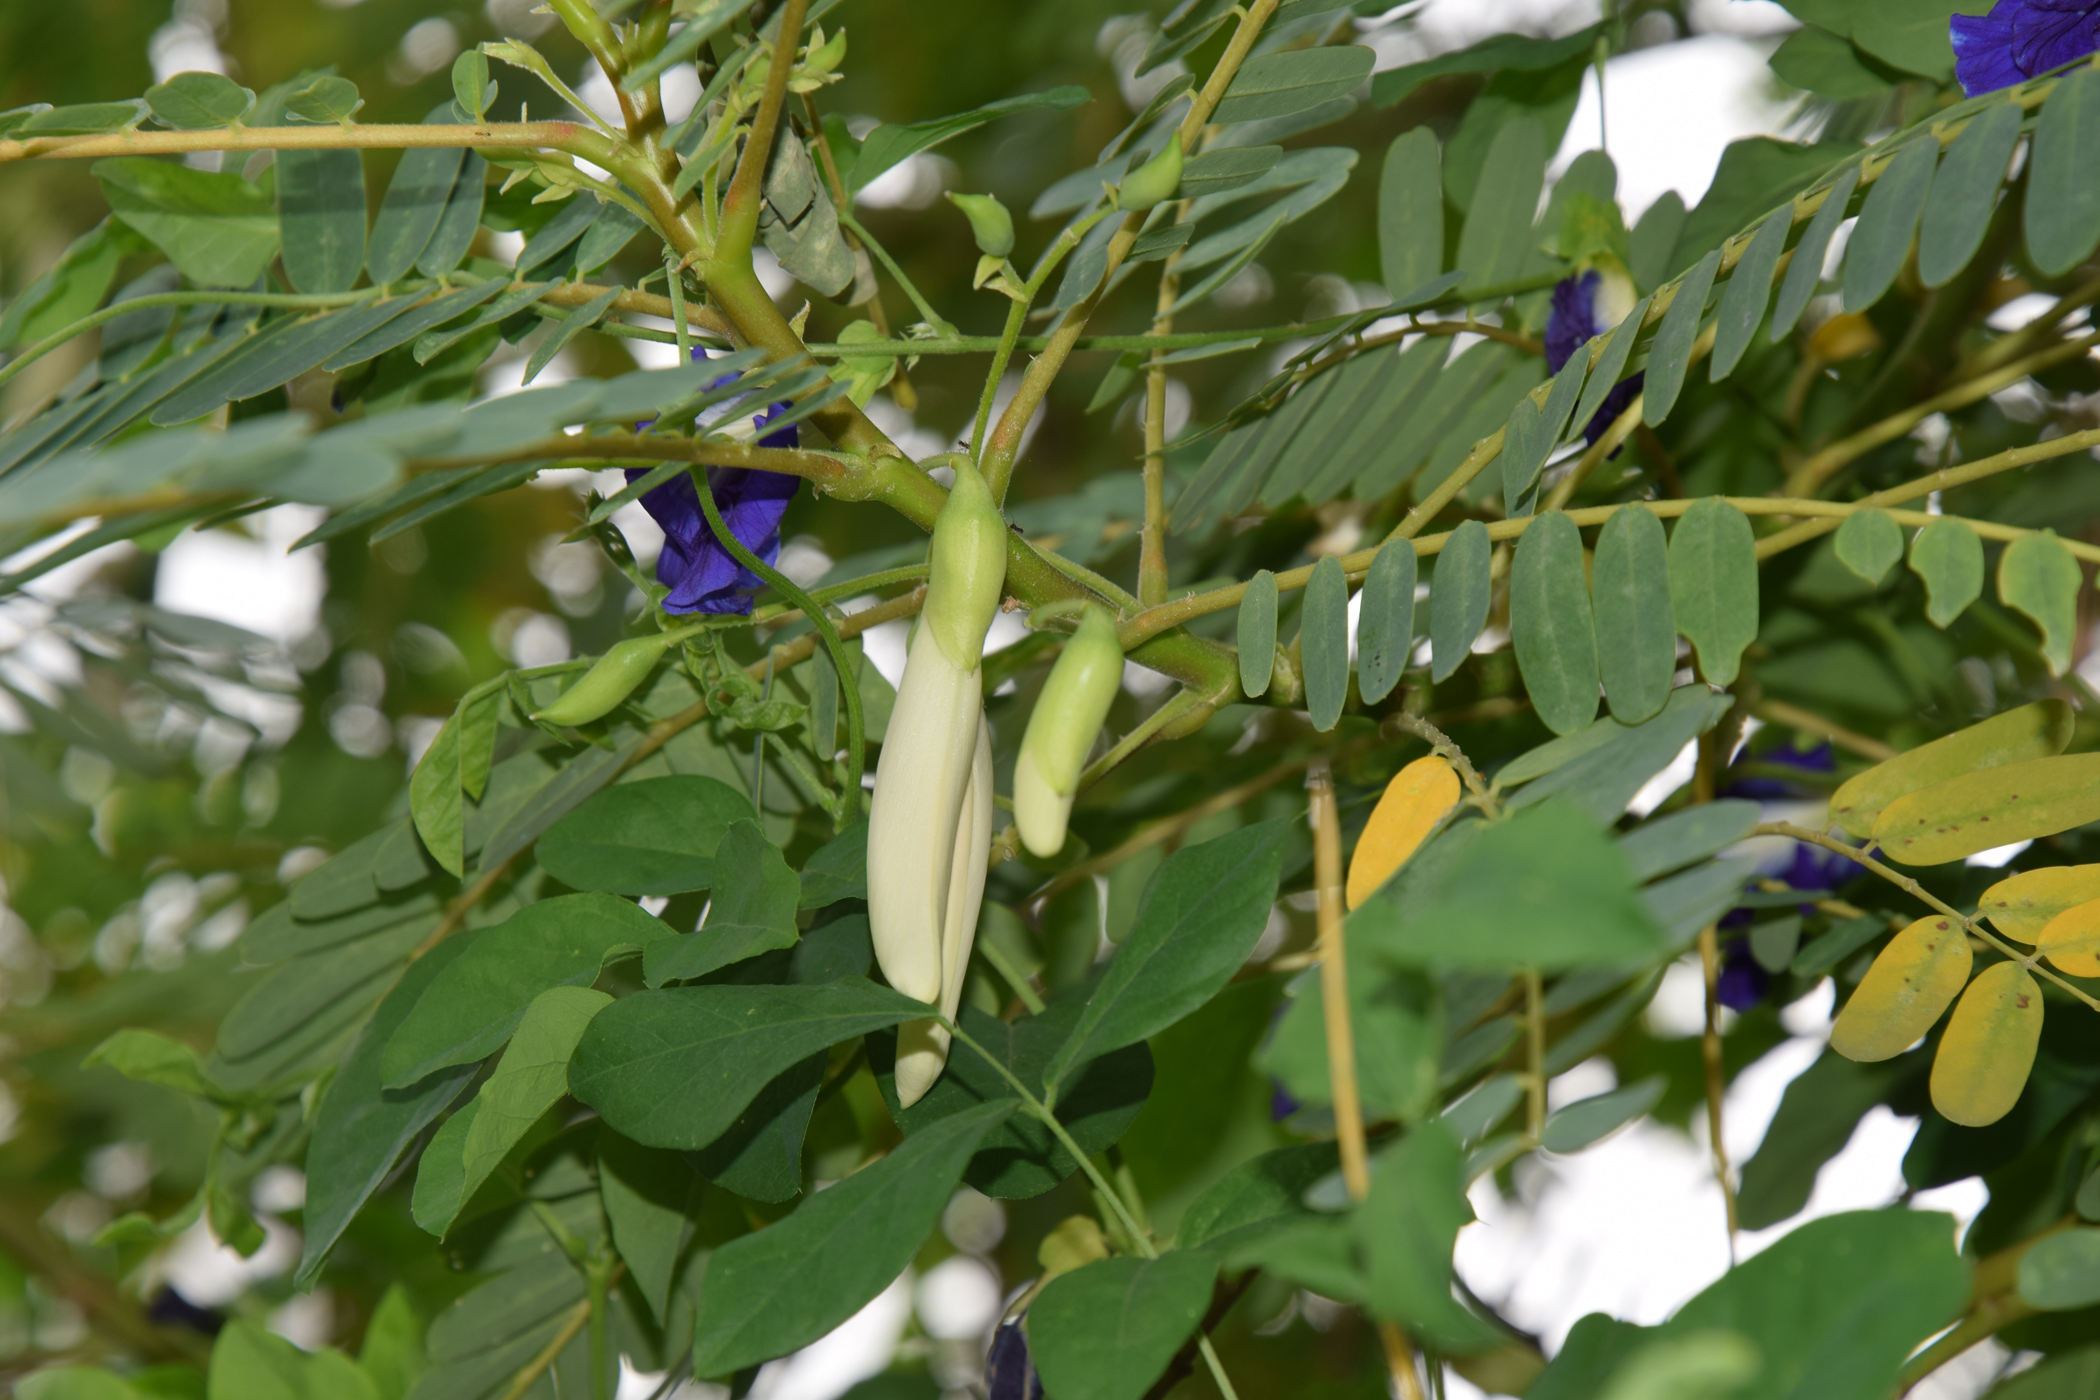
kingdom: Plantae
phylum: Tracheophyta
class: Magnoliopsida
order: Fabales
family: Fabaceae
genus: Sesbania
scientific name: Sesbania grandiflora
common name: Vegetable-hummingbird
